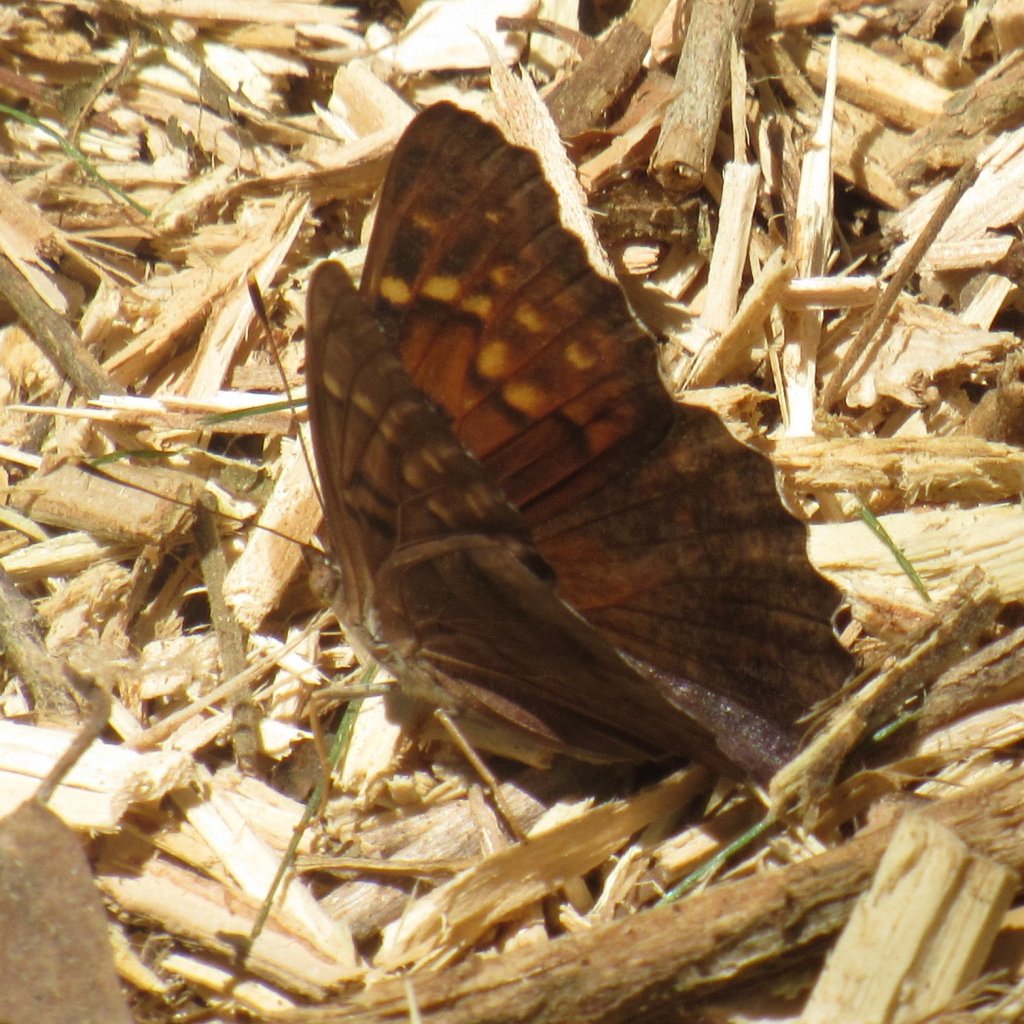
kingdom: Animalia
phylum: Arthropoda
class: Insecta
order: Lepidoptera
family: Nymphalidae
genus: Asterocampa
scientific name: Asterocampa clyton
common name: Tawny Emperor
